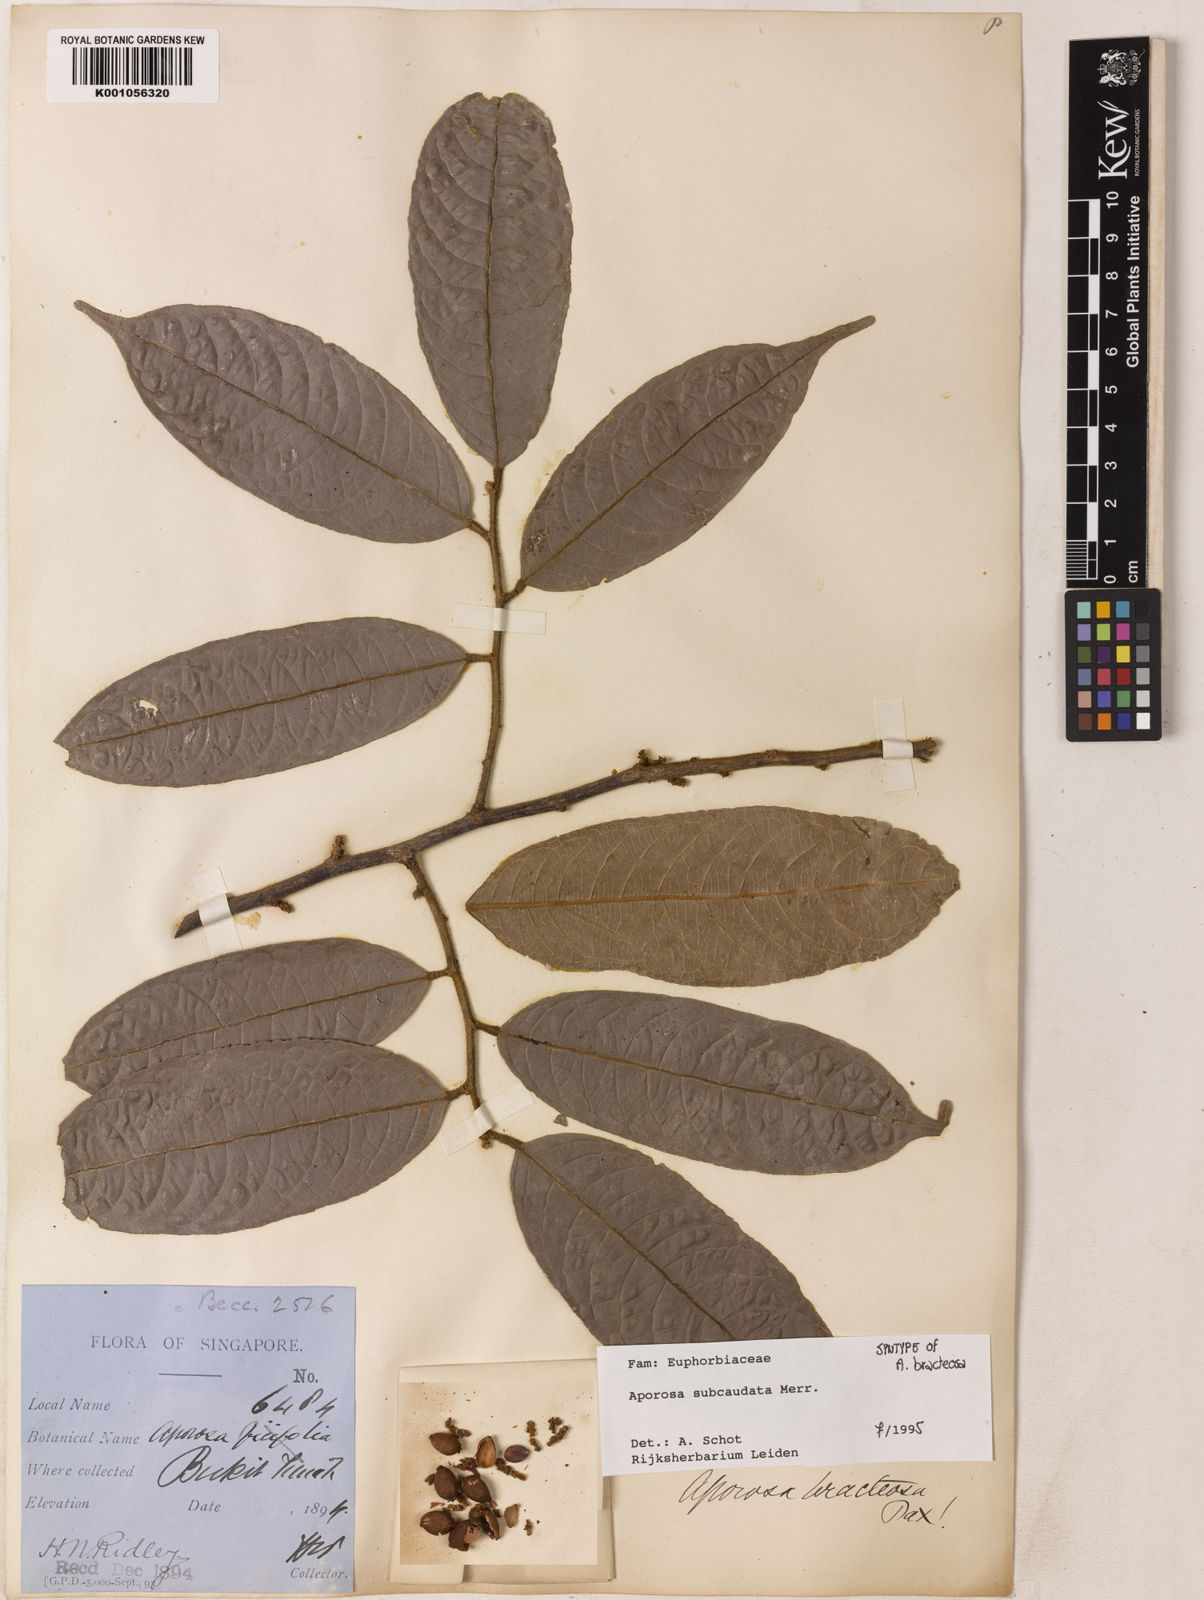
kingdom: Plantae
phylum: Tracheophyta
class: Magnoliopsida
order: Malpighiales
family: Phyllanthaceae
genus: Aporosa
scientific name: Aporosa subcaudata
